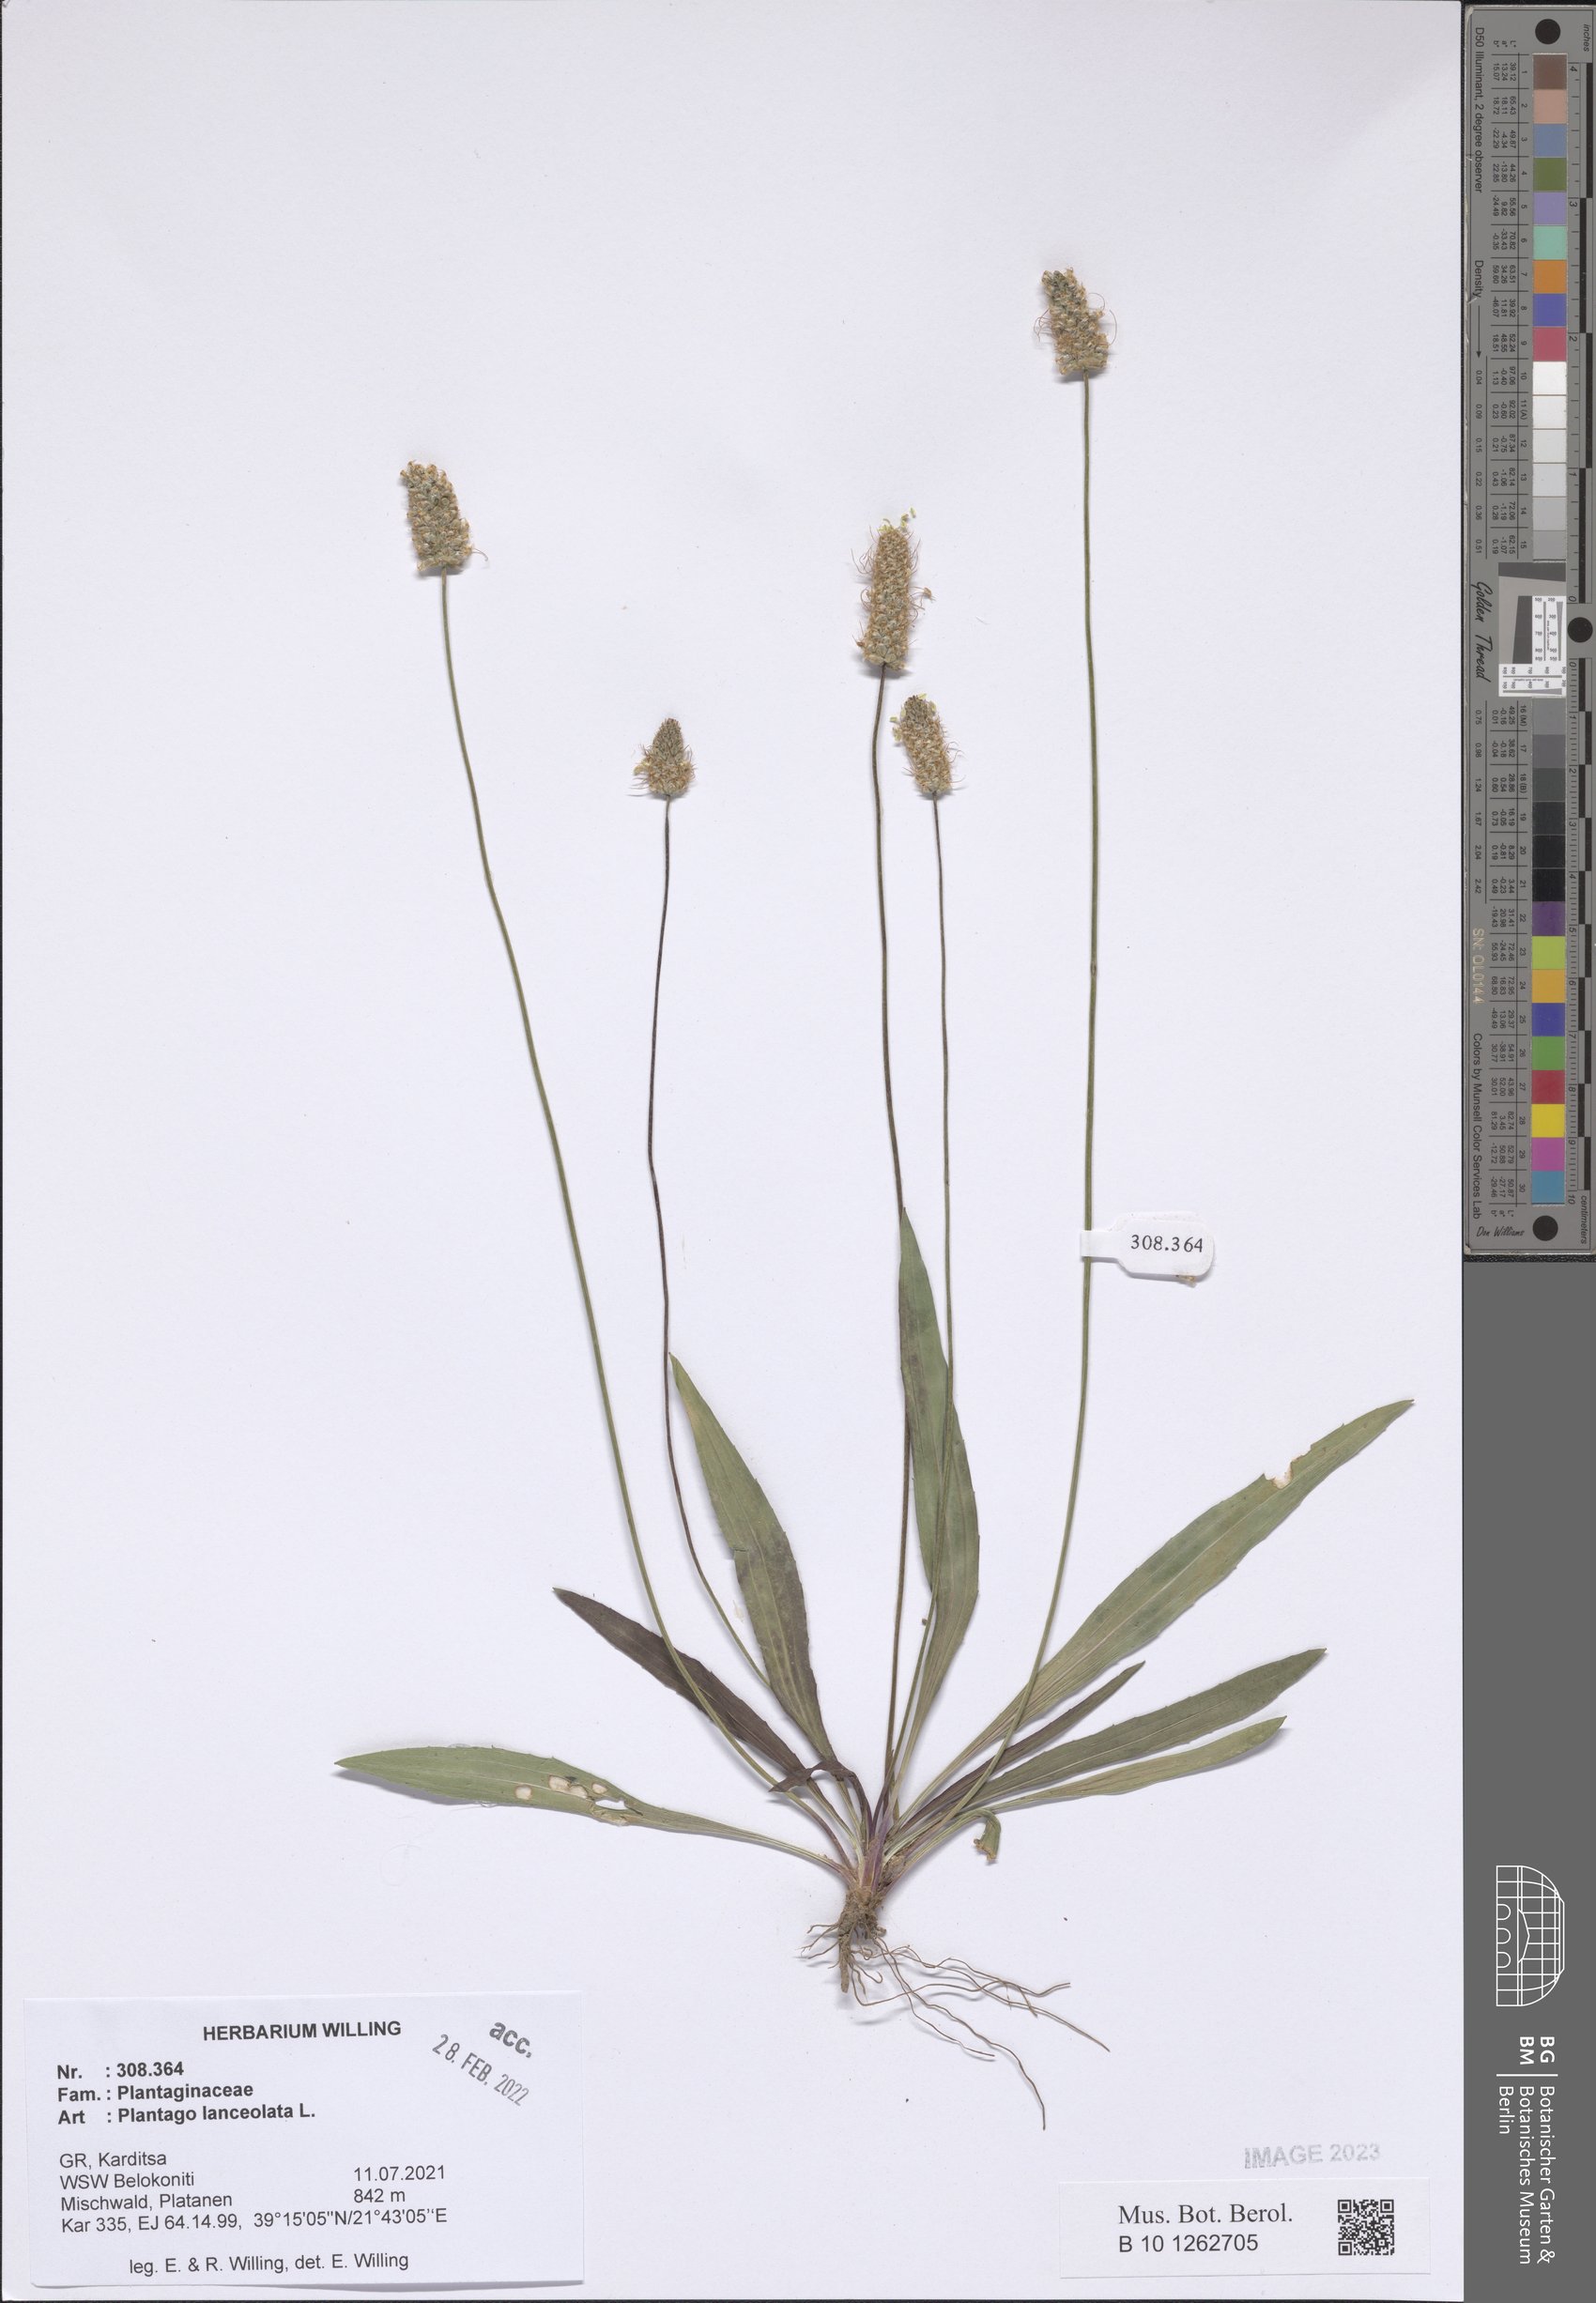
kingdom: Plantae
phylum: Tracheophyta
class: Magnoliopsida
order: Lamiales
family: Plantaginaceae
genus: Plantago
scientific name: Plantago lanceolata
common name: Ribwort plantain
